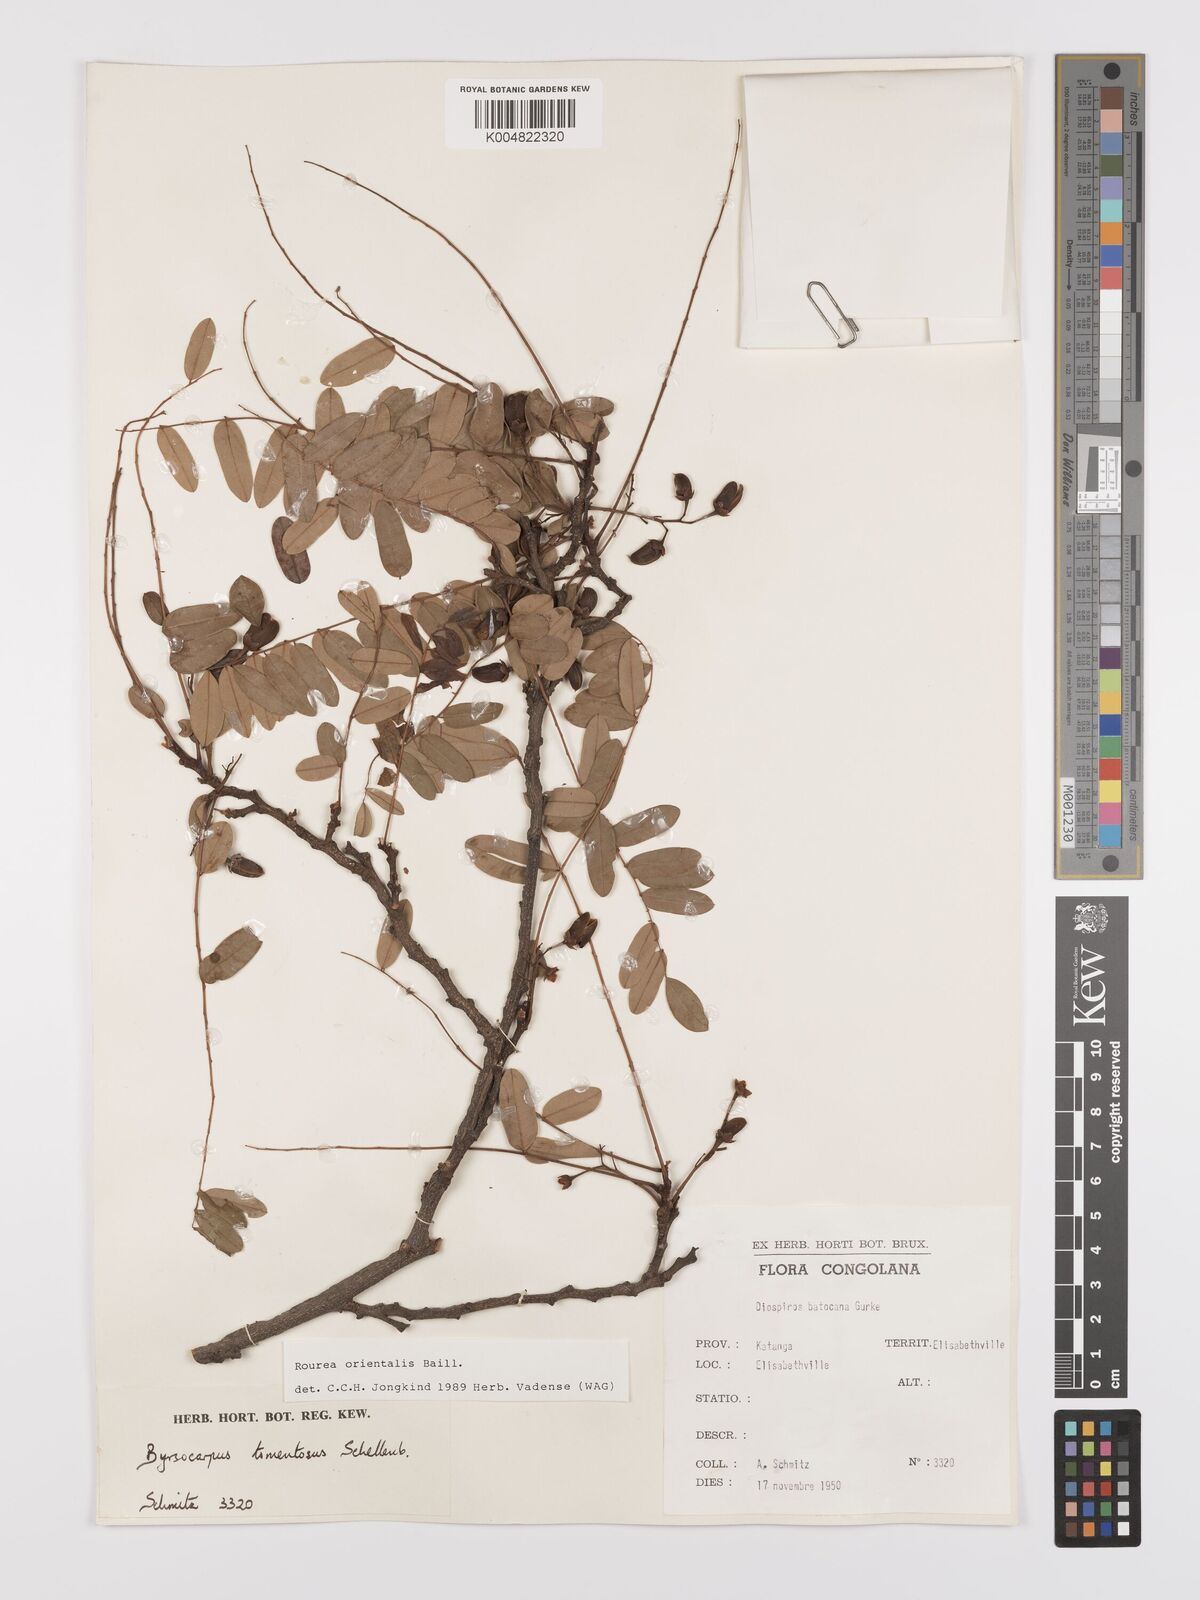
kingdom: Plantae
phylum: Tracheophyta
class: Magnoliopsida
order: Oxalidales
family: Connaraceae
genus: Rourea
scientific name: Rourea orientalis
